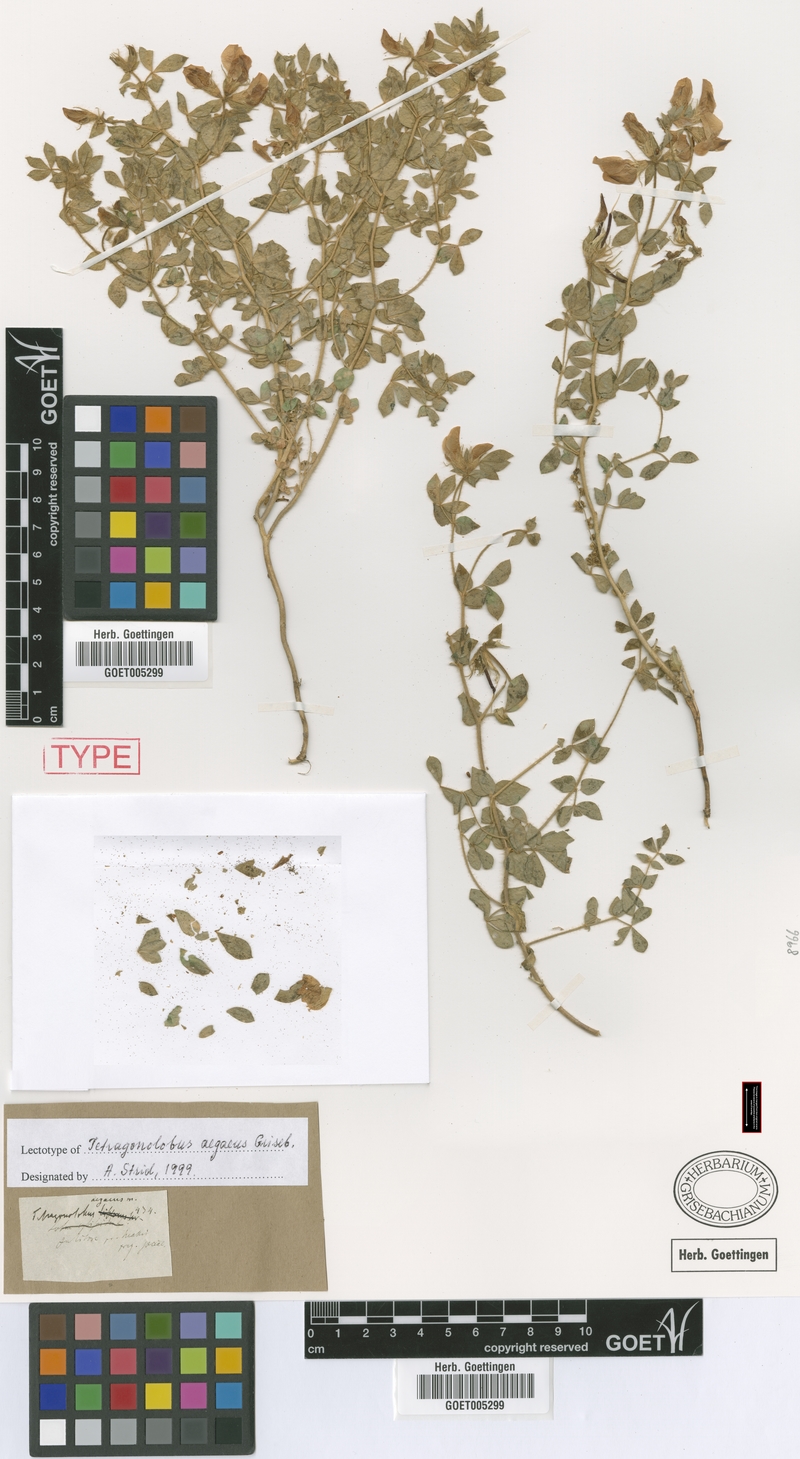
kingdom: Plantae
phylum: Tracheophyta
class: Magnoliopsida
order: Fabales
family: Fabaceae
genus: Lotus
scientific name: Lotus aegaeus
